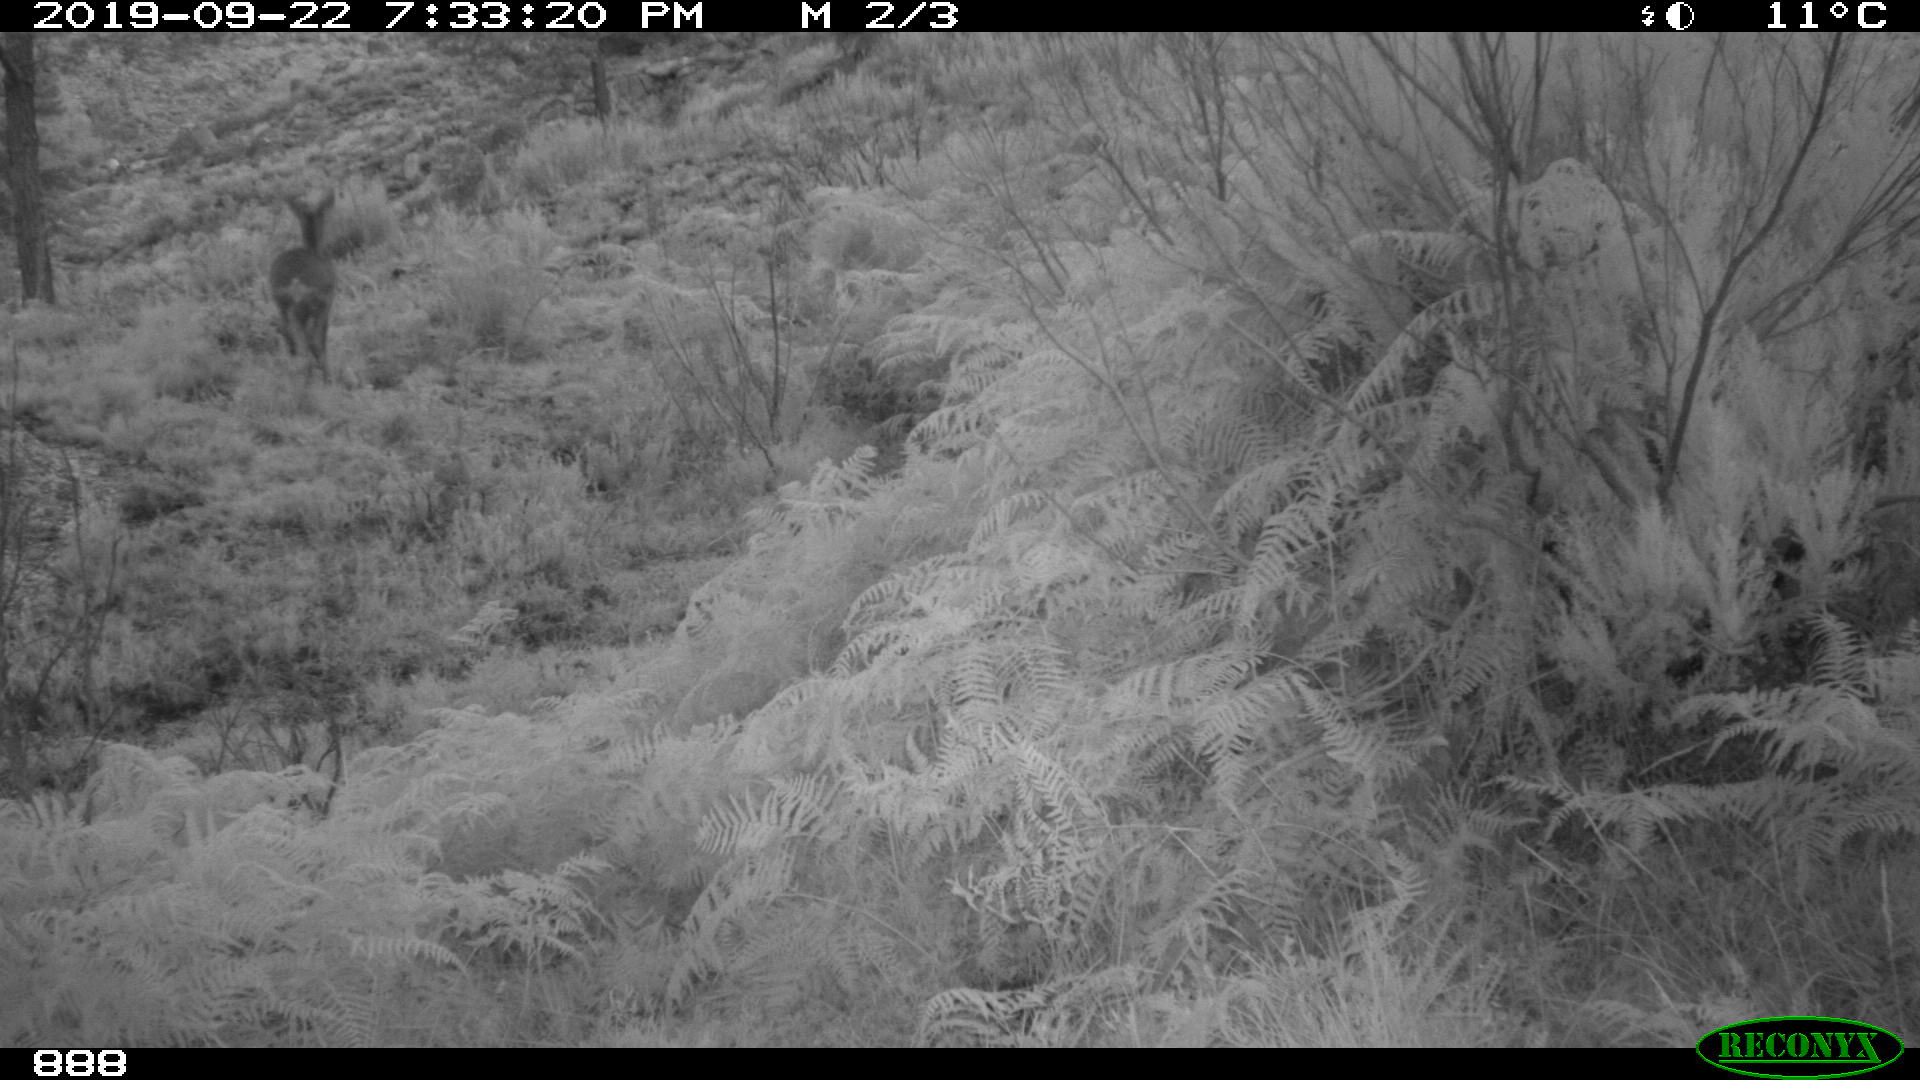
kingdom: Animalia
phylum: Chordata
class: Mammalia
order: Artiodactyla
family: Cervidae
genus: Capreolus
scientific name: Capreolus capreolus
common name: Western roe deer
